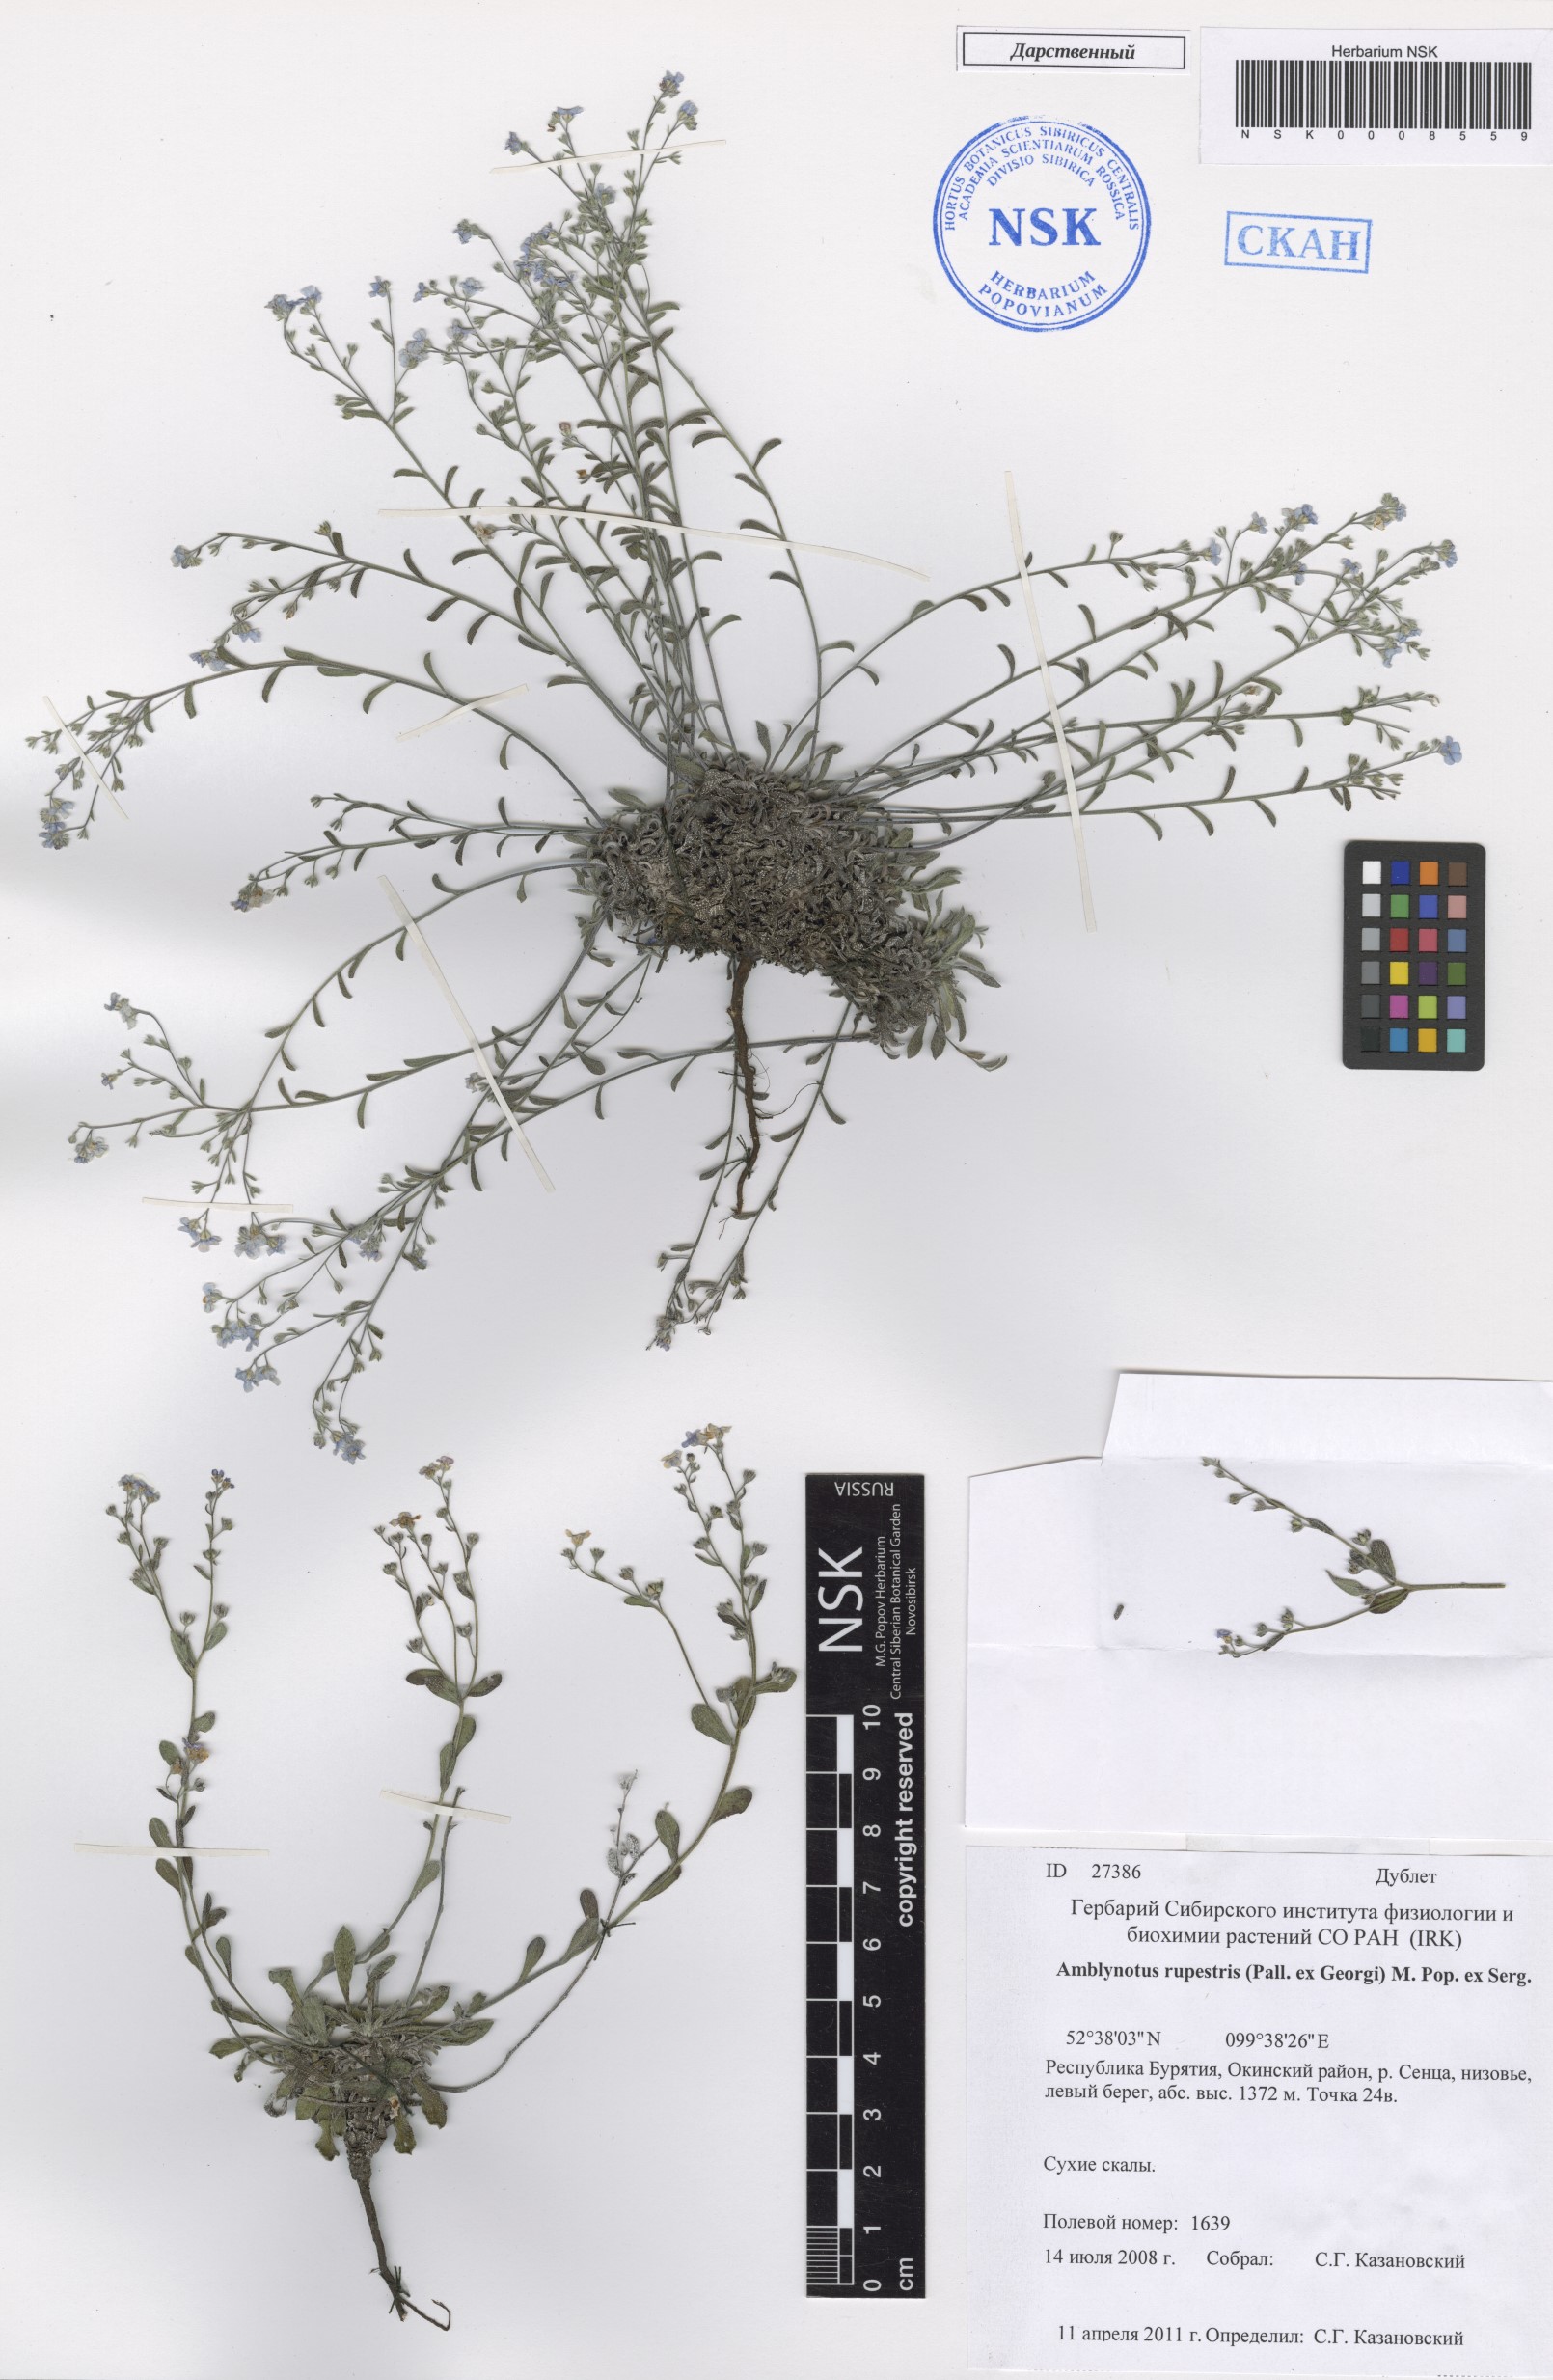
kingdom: Plantae
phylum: Tracheophyta
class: Magnoliopsida
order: Boraginales
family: Boraginaceae
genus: Eritrichium
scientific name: Eritrichium rupestre
